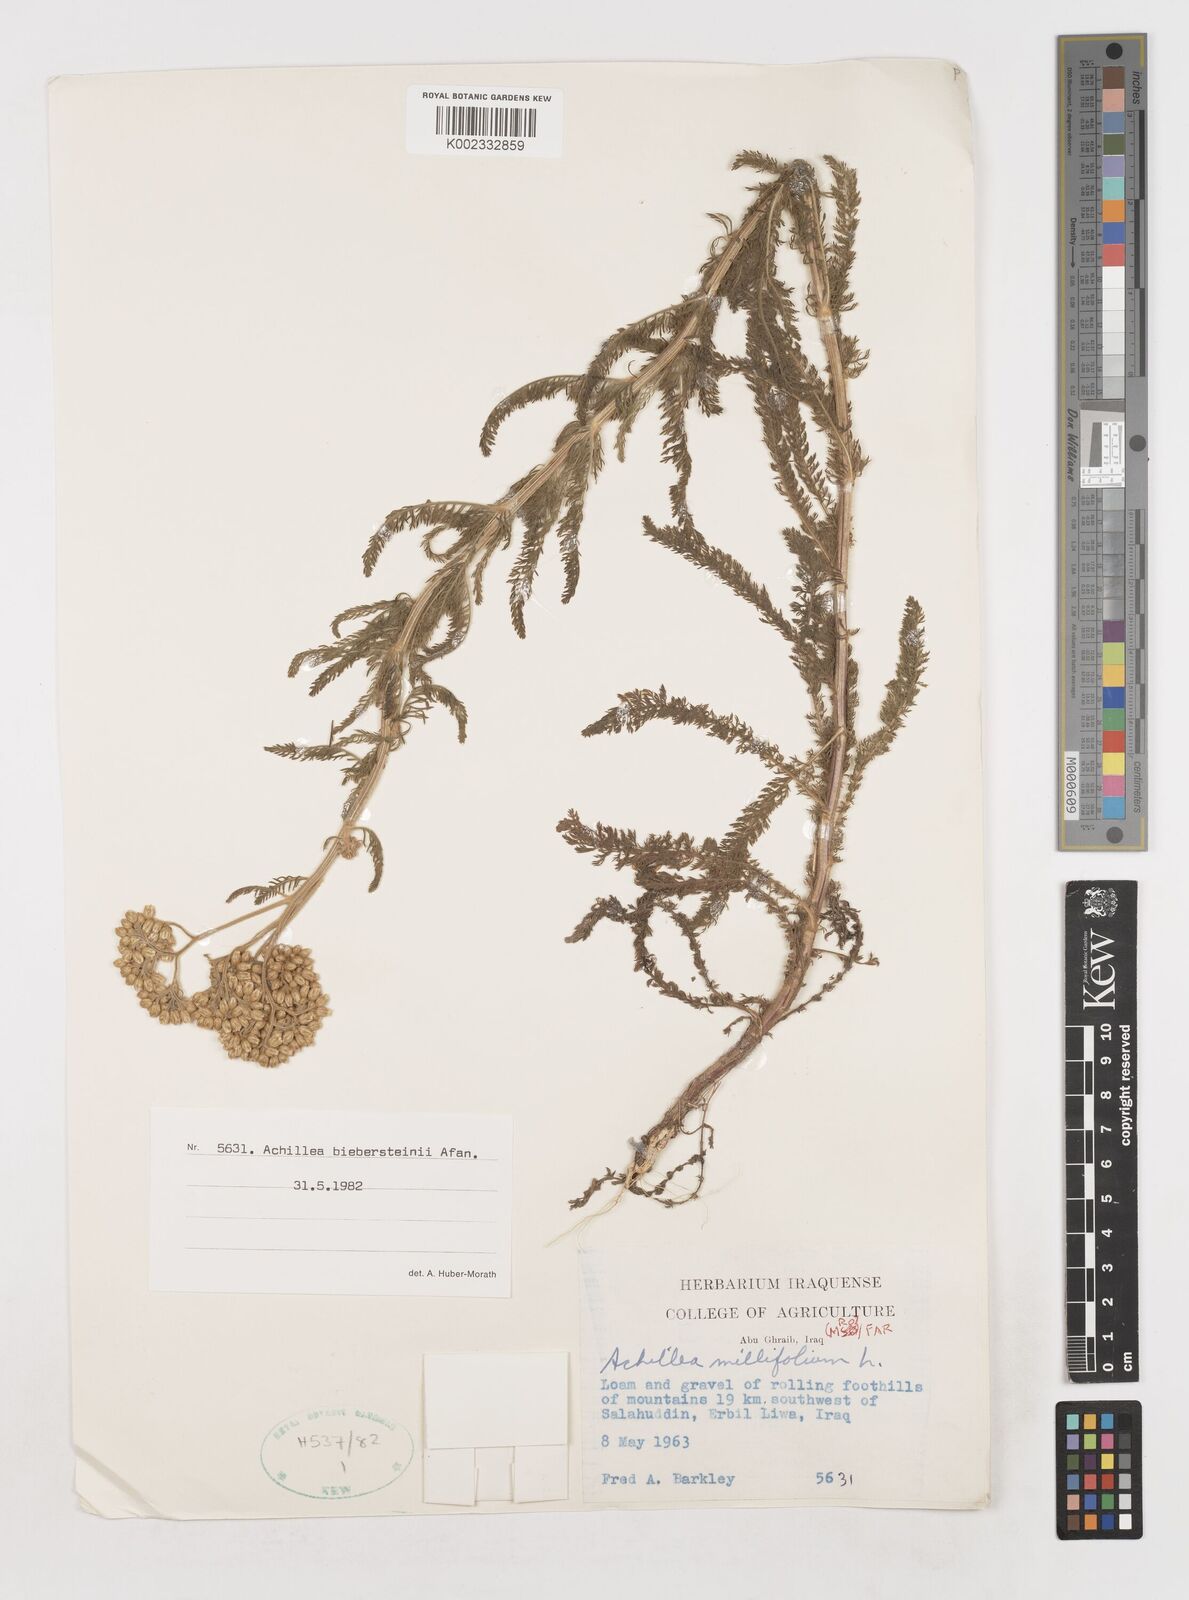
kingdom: Plantae
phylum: Tracheophyta
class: Magnoliopsida
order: Asterales
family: Asteraceae
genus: Achillea
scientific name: Achillea arabica
